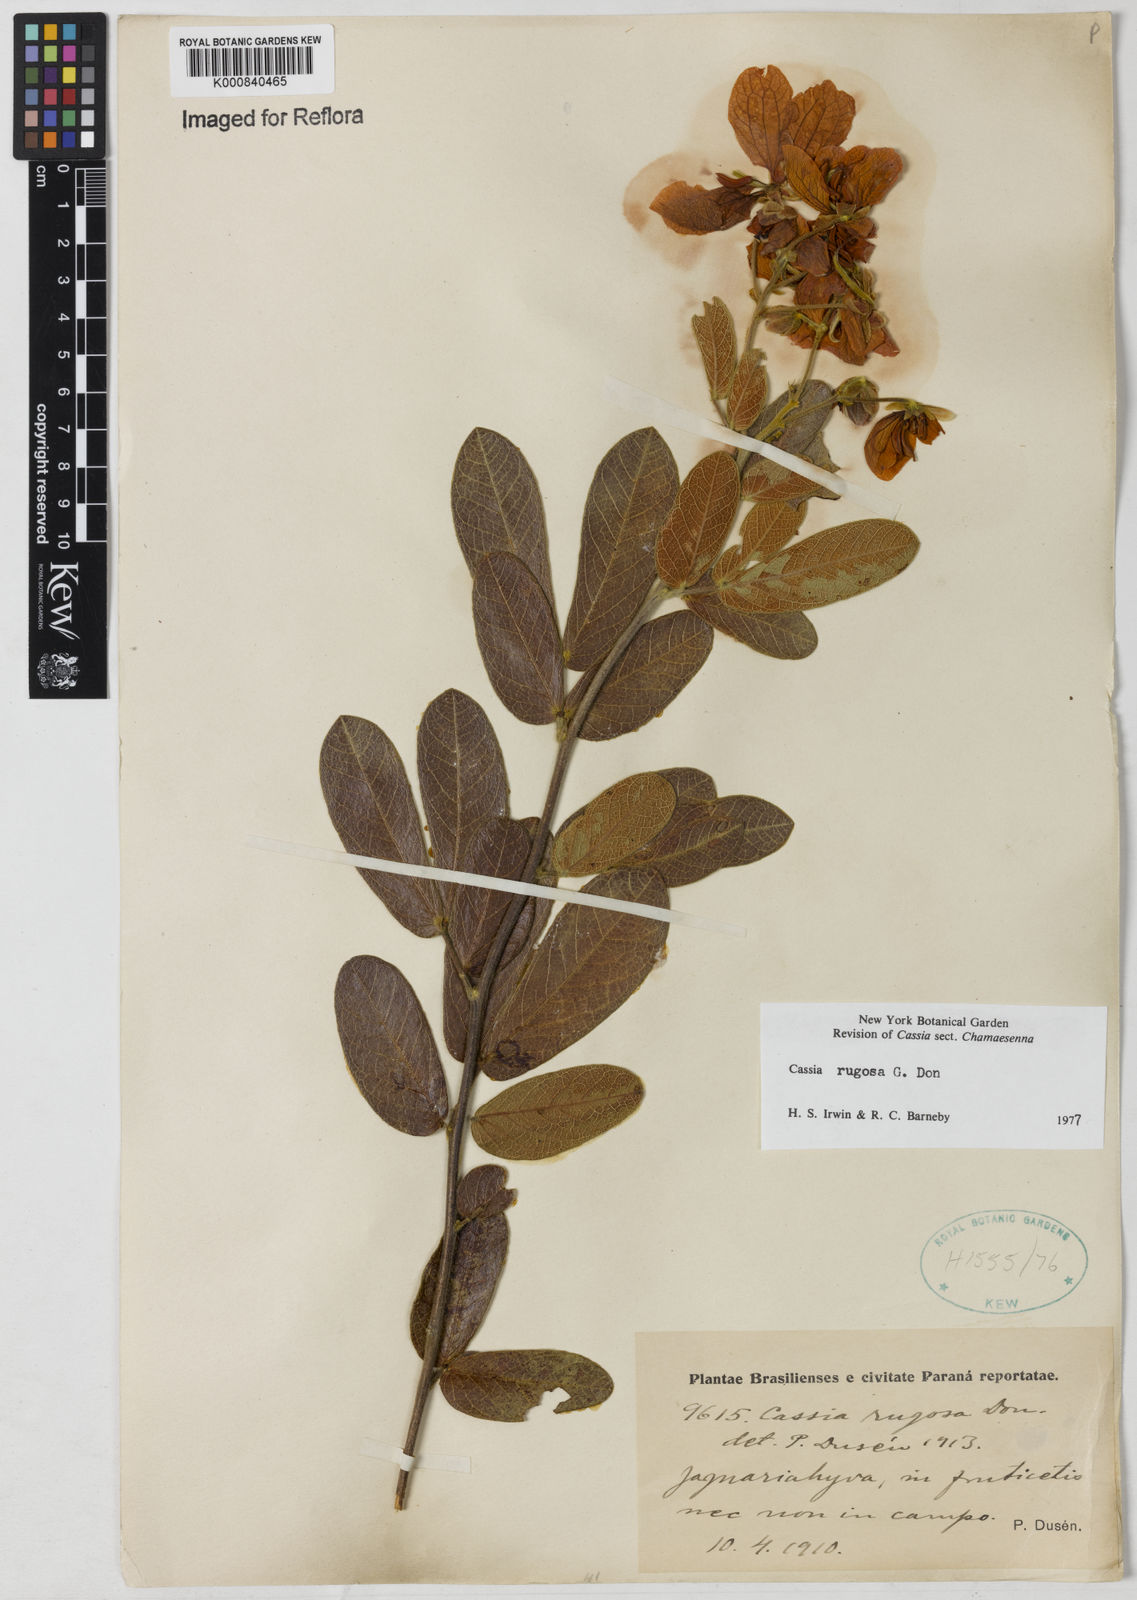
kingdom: Plantae
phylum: Tracheophyta
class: Magnoliopsida
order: Fabales
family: Fabaceae
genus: Senna
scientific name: Senna rugosa
